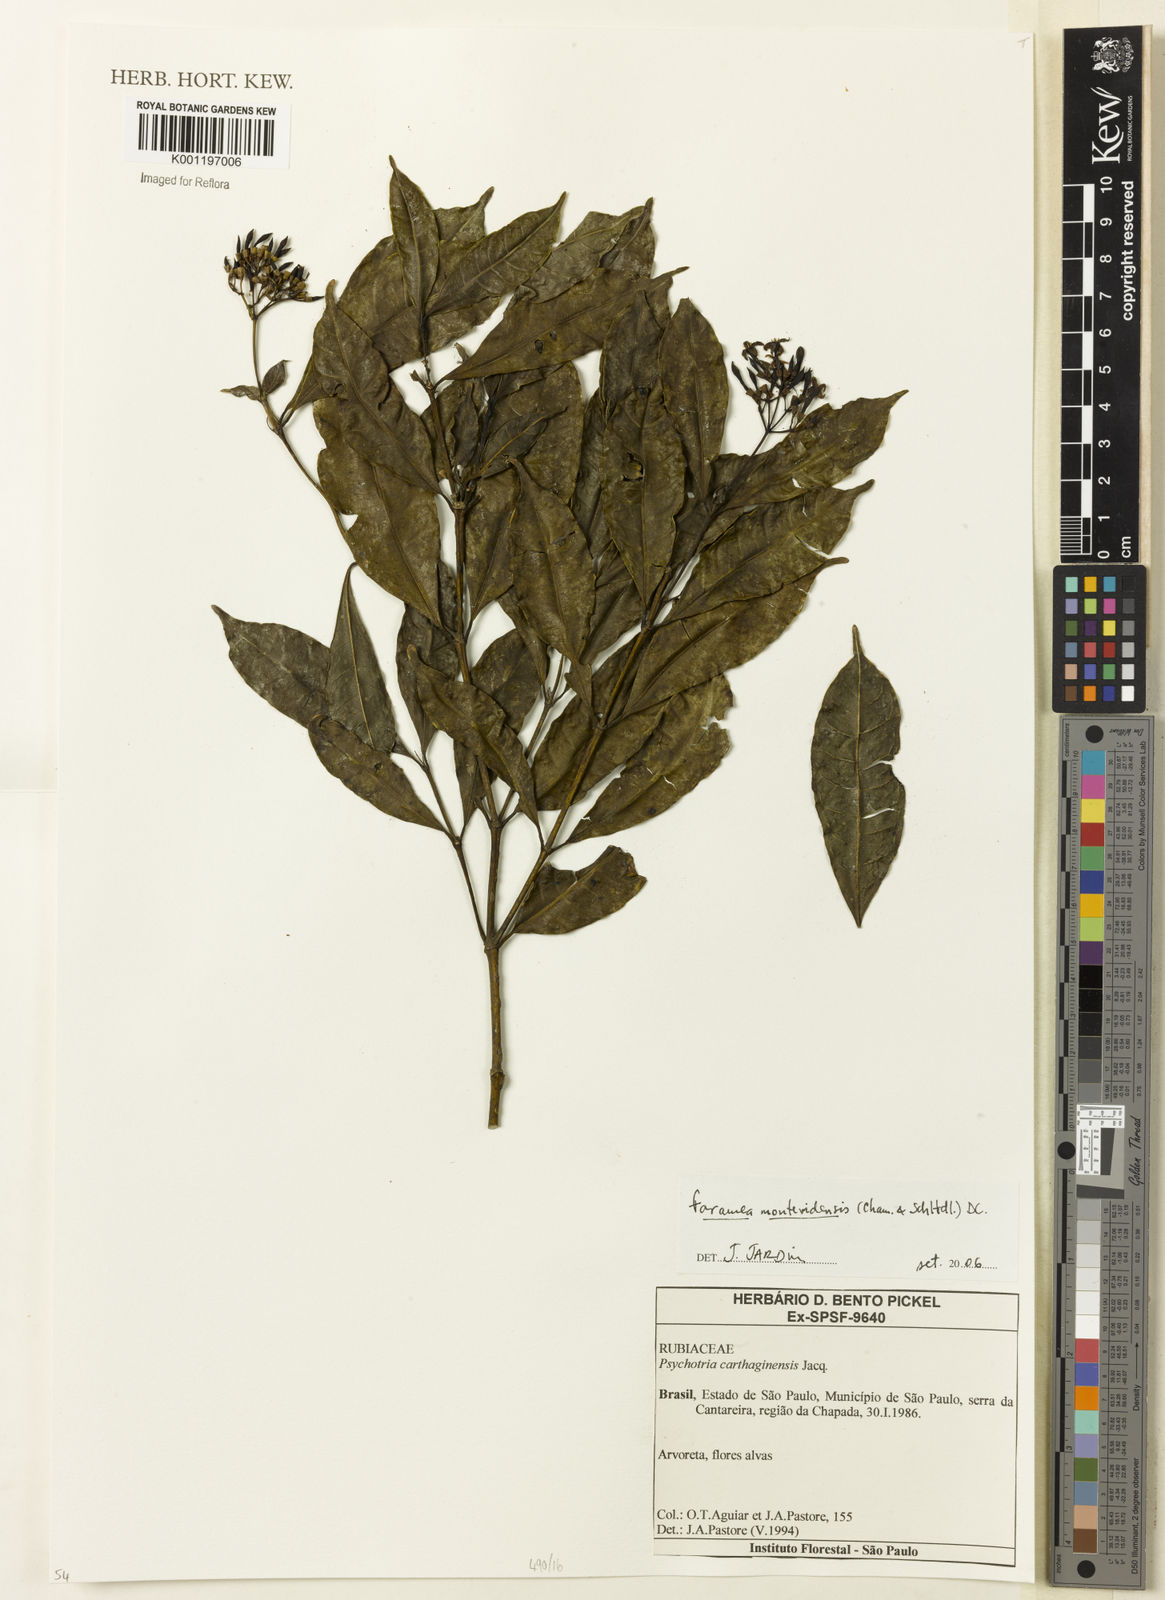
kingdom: Plantae
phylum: Tracheophyta
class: Magnoliopsida
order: Gentianales
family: Rubiaceae
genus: Faramea
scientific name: Faramea montevidensis
